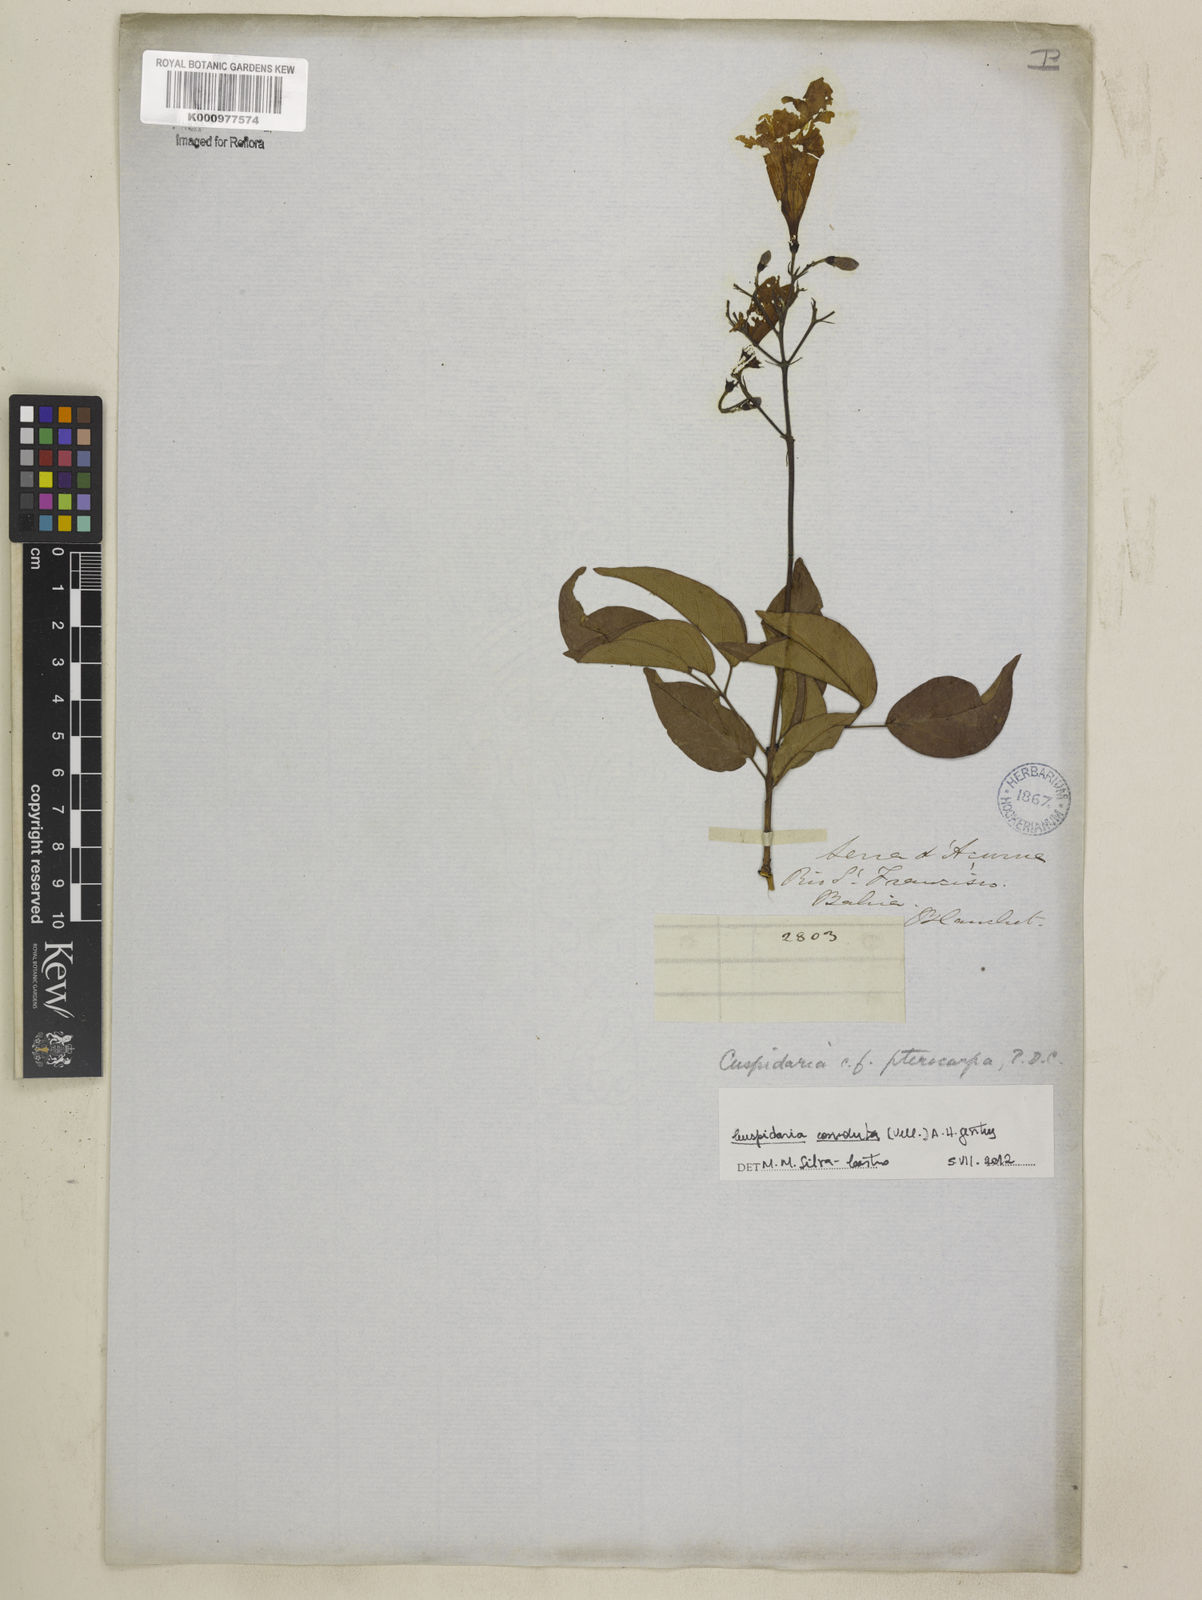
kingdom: Plantae
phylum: Tracheophyta
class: Magnoliopsida
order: Lamiales
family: Bignoniaceae
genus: Cuspidaria
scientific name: Cuspidaria convoluta
